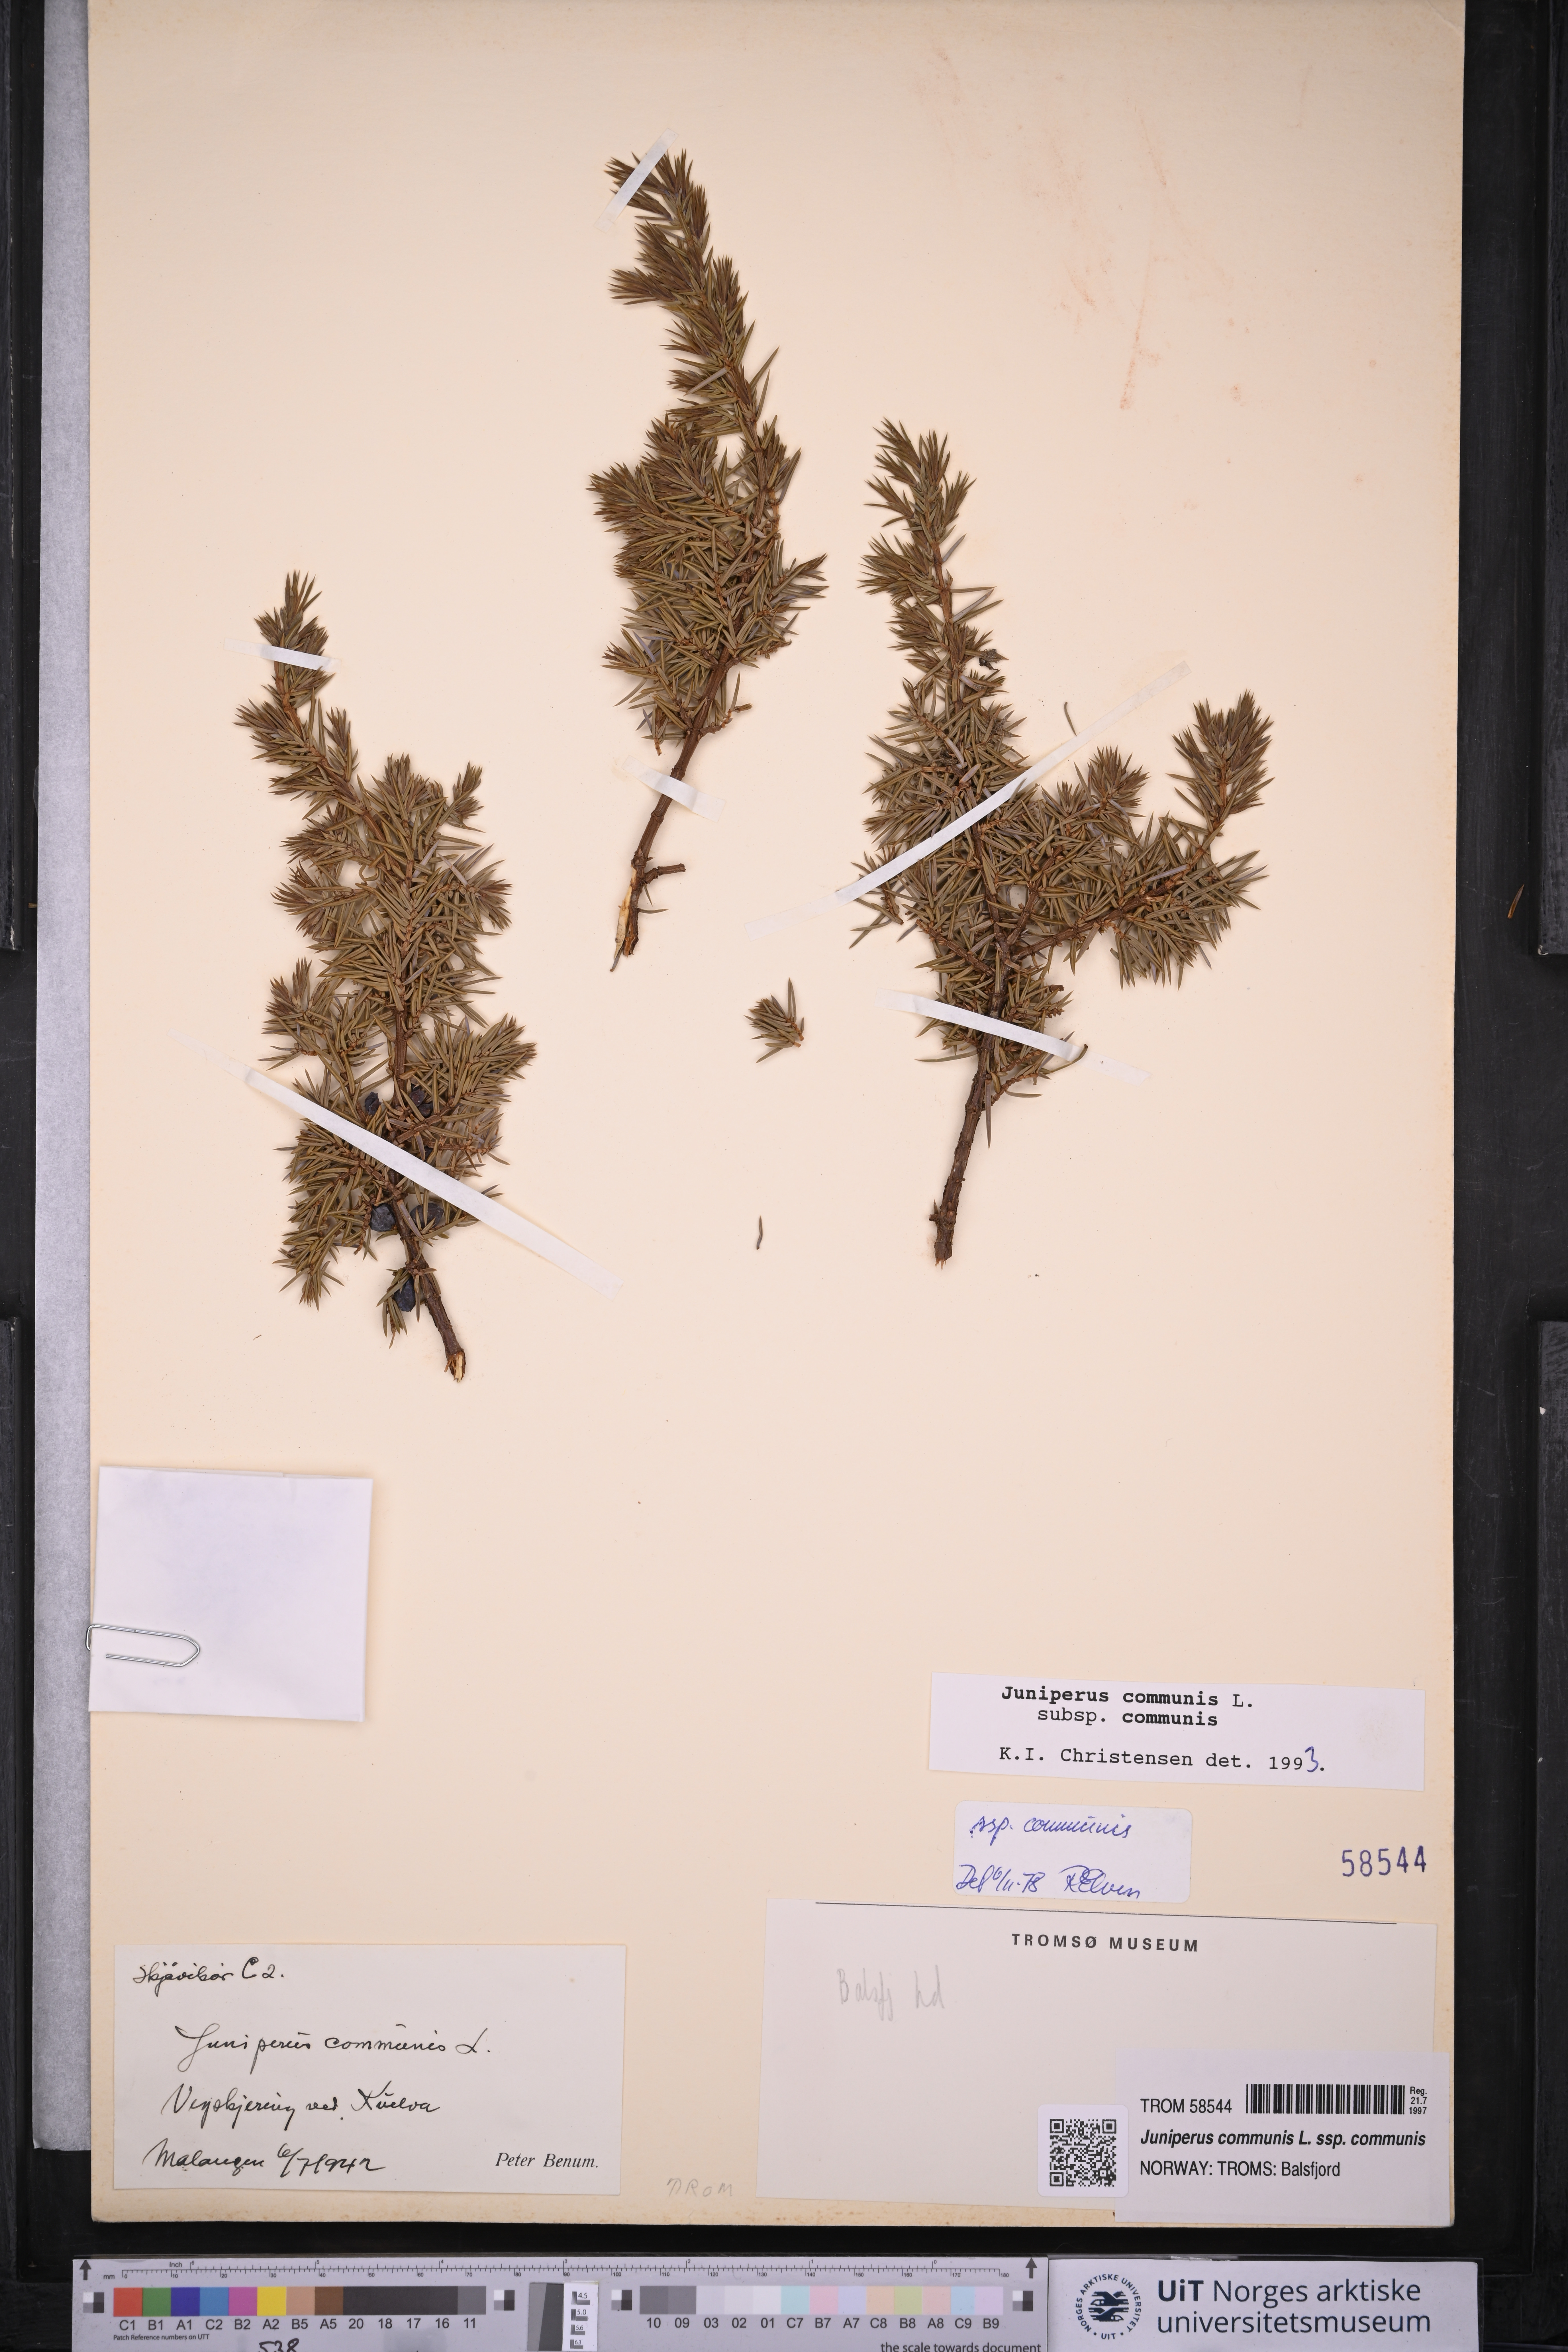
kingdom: Plantae
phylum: Tracheophyta
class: Pinopsida
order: Pinales
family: Cupressaceae
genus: Juniperus
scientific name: Juniperus communis
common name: Common juniper
